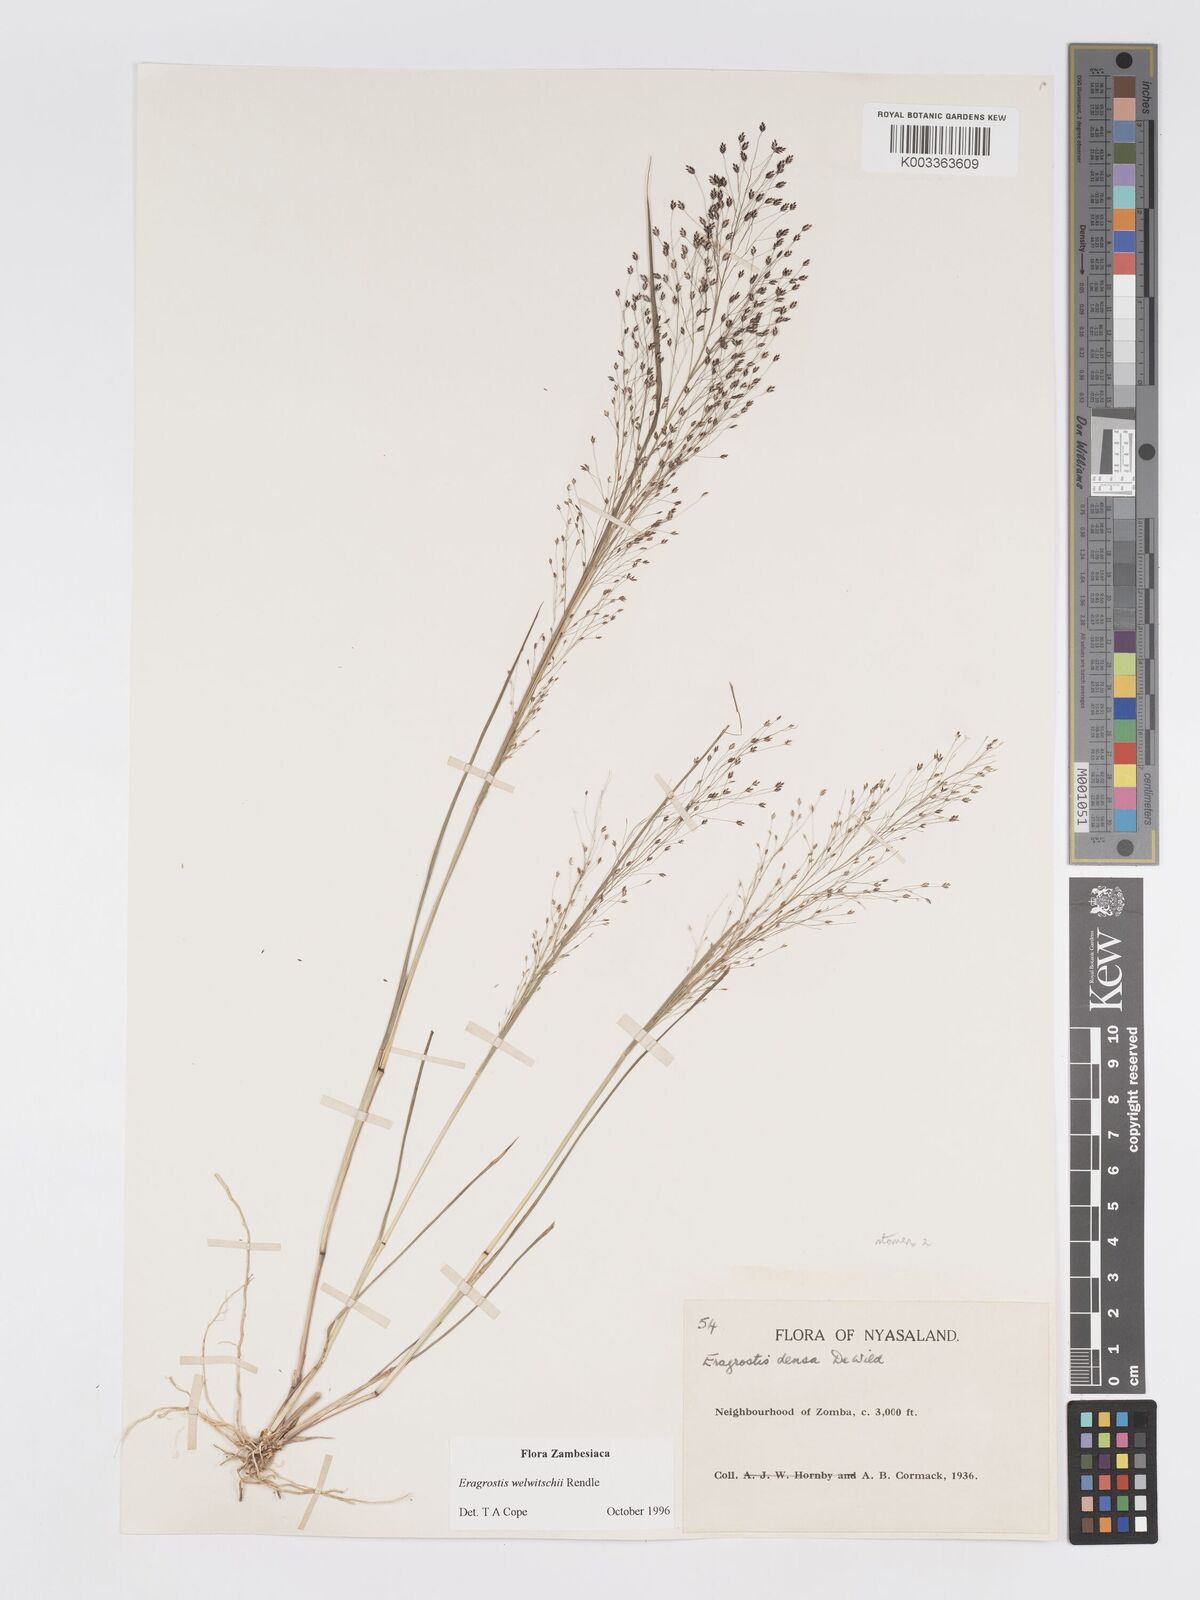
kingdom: Plantae
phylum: Tracheophyta
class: Liliopsida
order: Poales
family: Poaceae
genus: Eragrostis
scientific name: Eragrostis welwitschii
